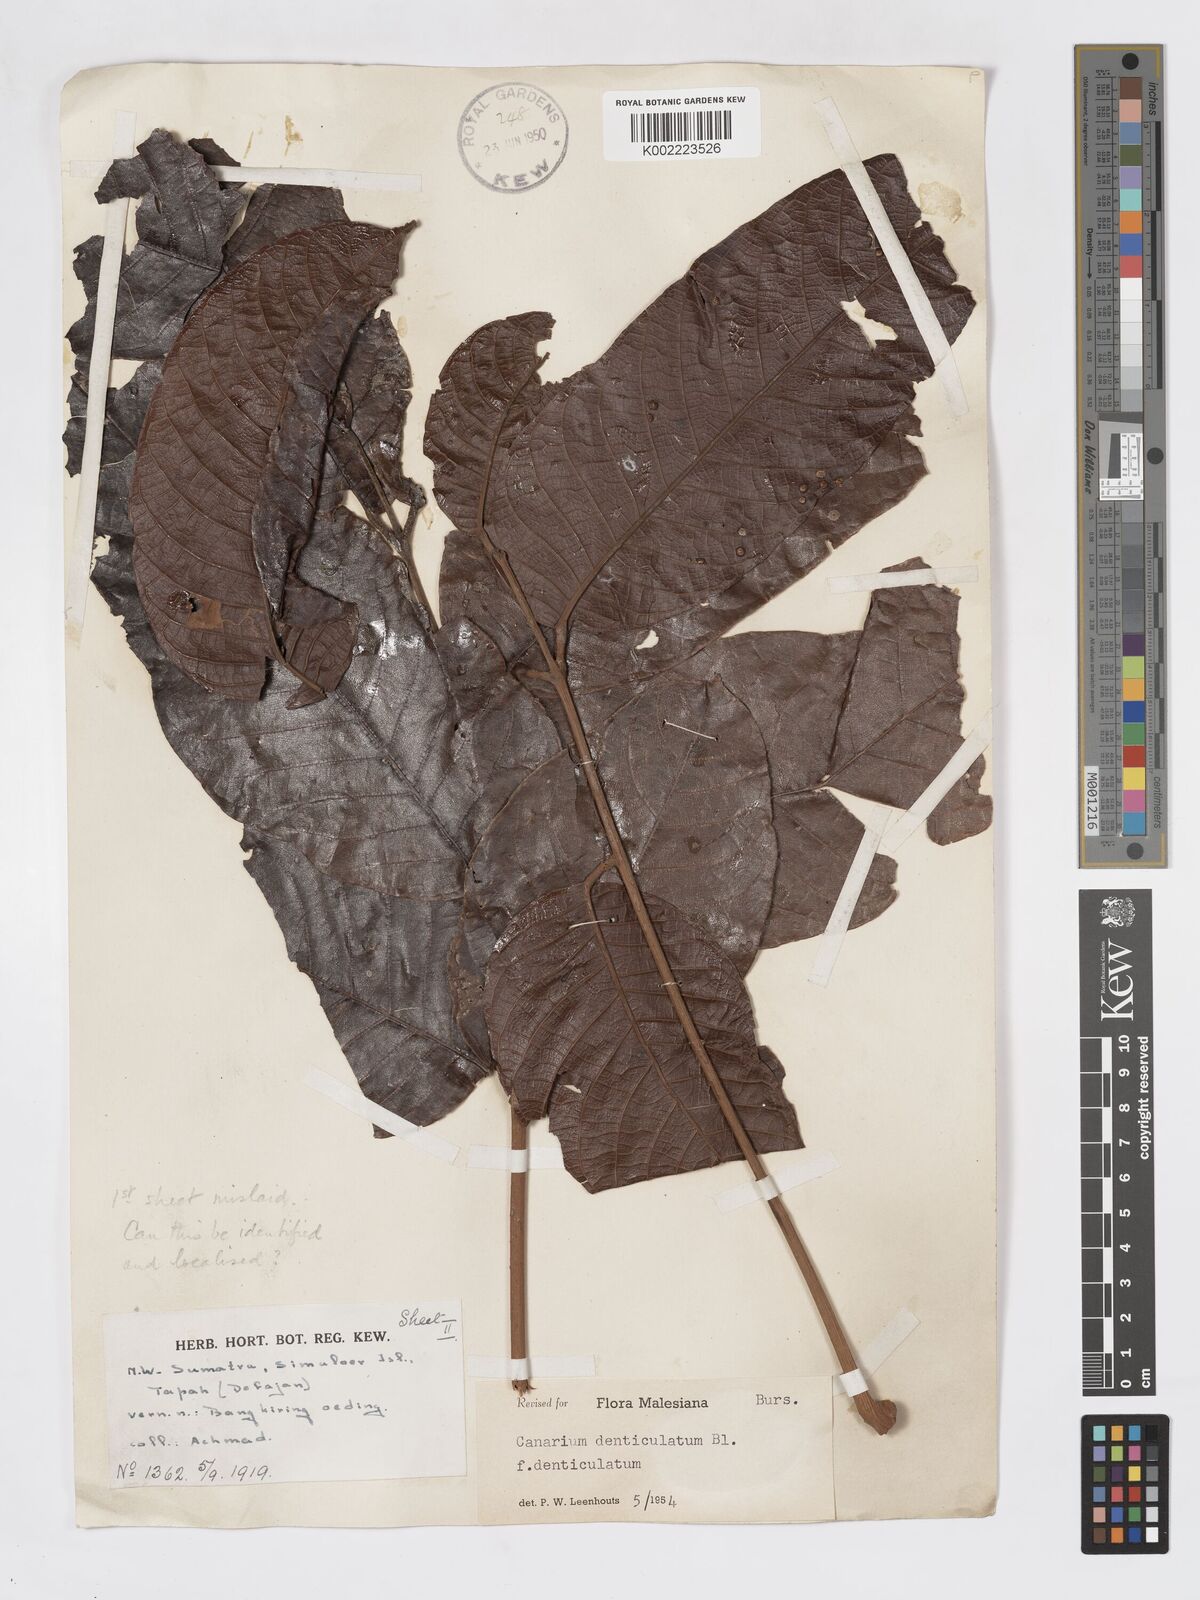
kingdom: Plantae
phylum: Tracheophyta
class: Magnoliopsida
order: Sapindales
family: Burseraceae
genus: Canarium
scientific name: Canarium denticulatum
